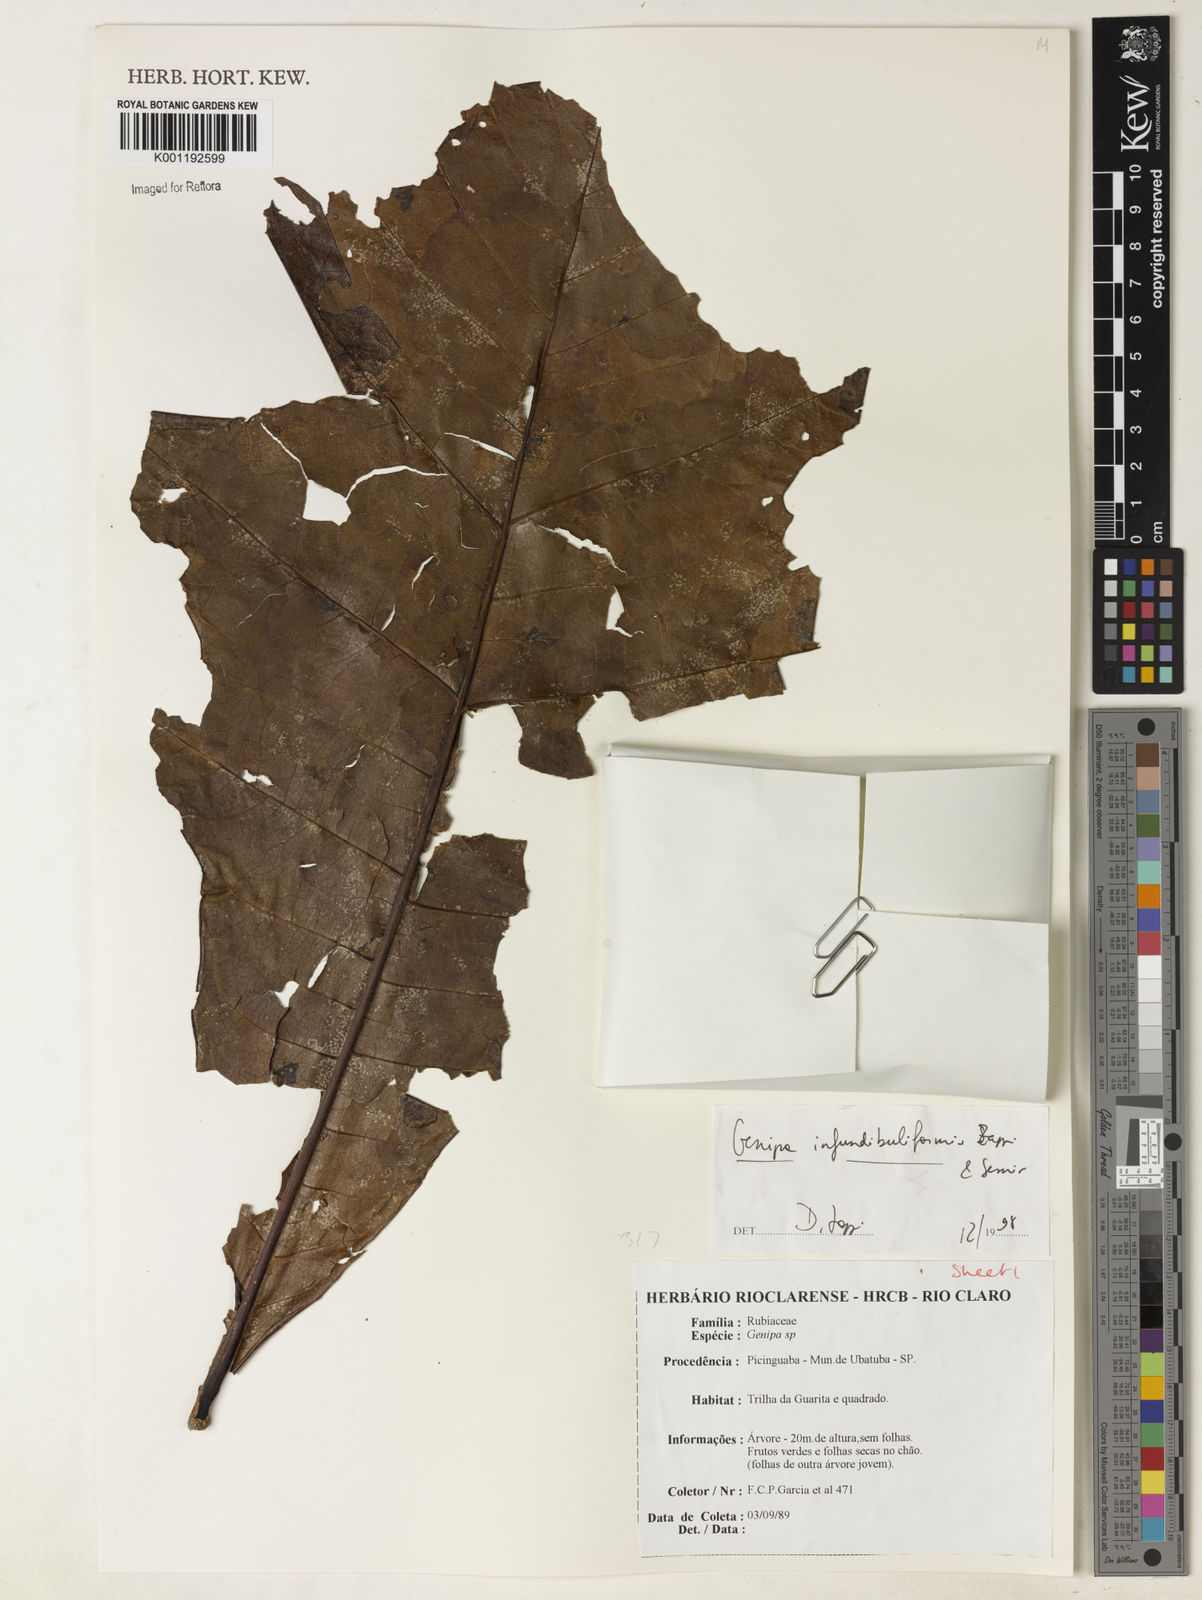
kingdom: Plantae
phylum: Tracheophyta
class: Magnoliopsida
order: Gentianales
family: Rubiaceae
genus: Genipa
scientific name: Genipa infundibuliformis
